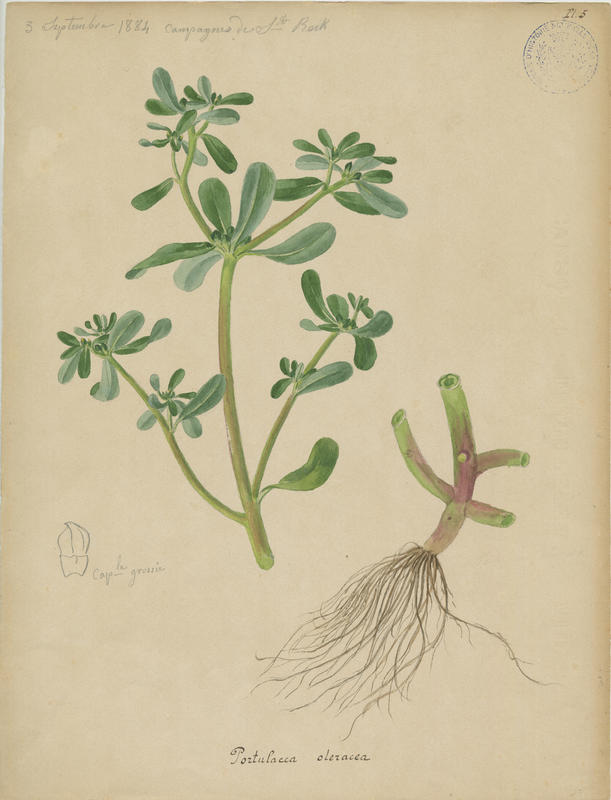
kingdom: Plantae
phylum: Tracheophyta
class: Magnoliopsida
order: Caryophyllales
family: Portulacaceae
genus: Portulaca
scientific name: Portulaca oleracea
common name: Common purslane
